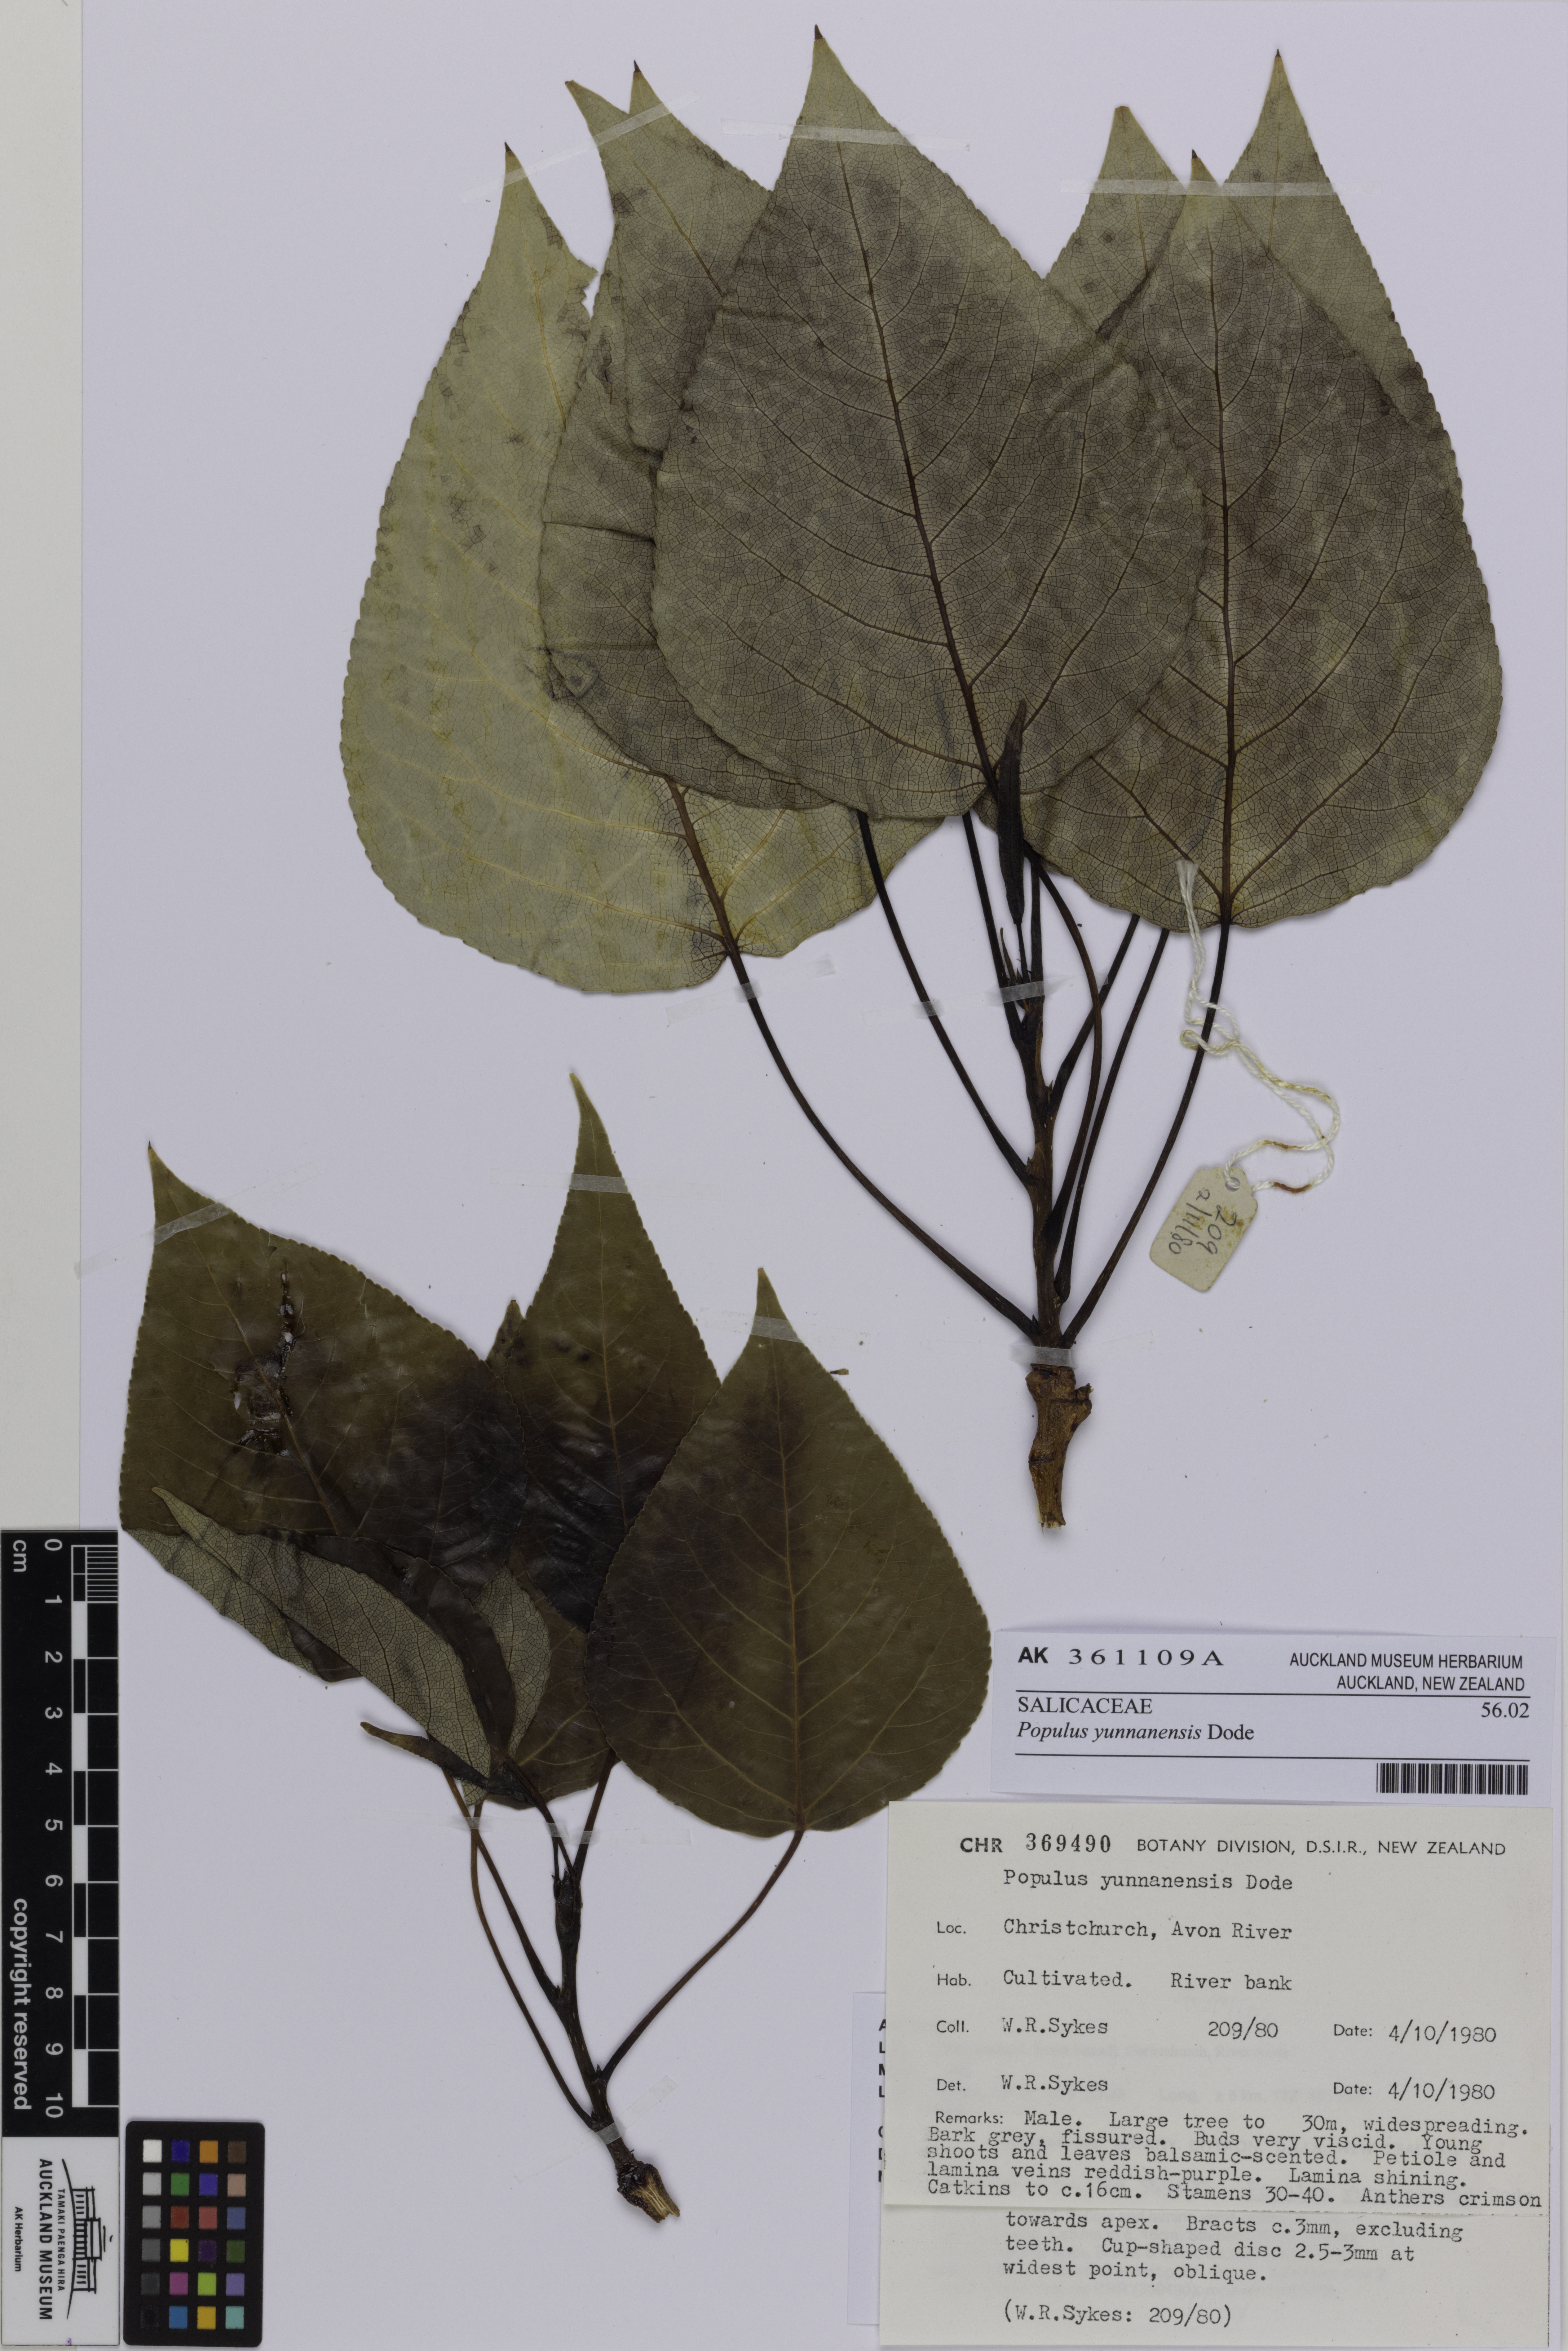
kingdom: Plantae
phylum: Tracheophyta
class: Magnoliopsida
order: Malpighiales
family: Salicaceae
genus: Populus
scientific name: Populus yunnanensis
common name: Yunnan poplar
